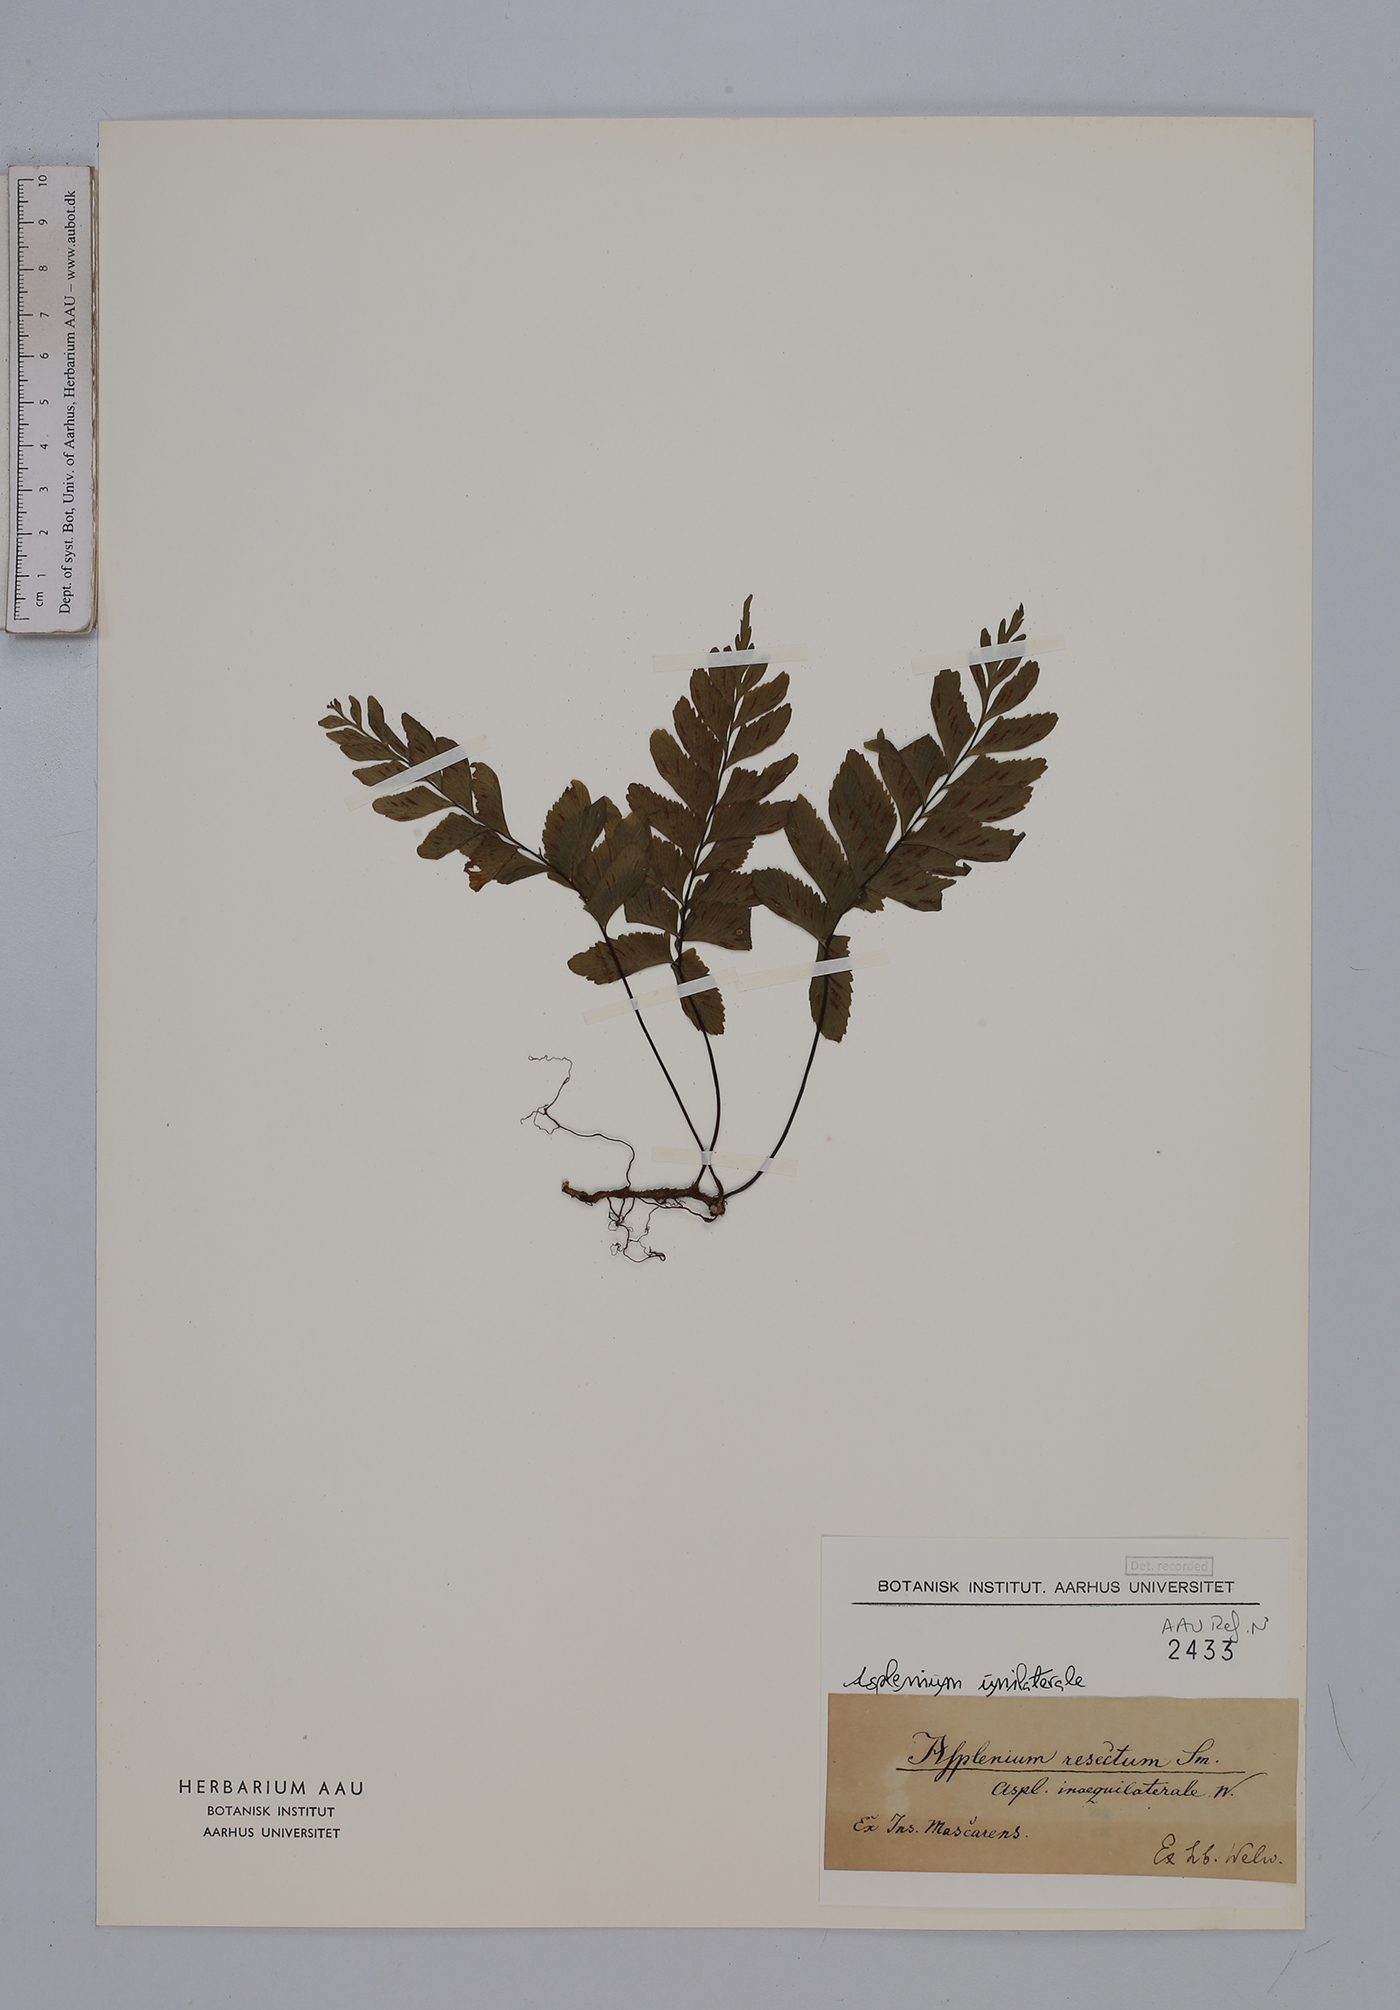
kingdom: Plantae
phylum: Tracheophyta
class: Polypodiopsida
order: Polypodiales
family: Aspleniaceae
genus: Hymenasplenium
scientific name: Hymenasplenium unilaterale
